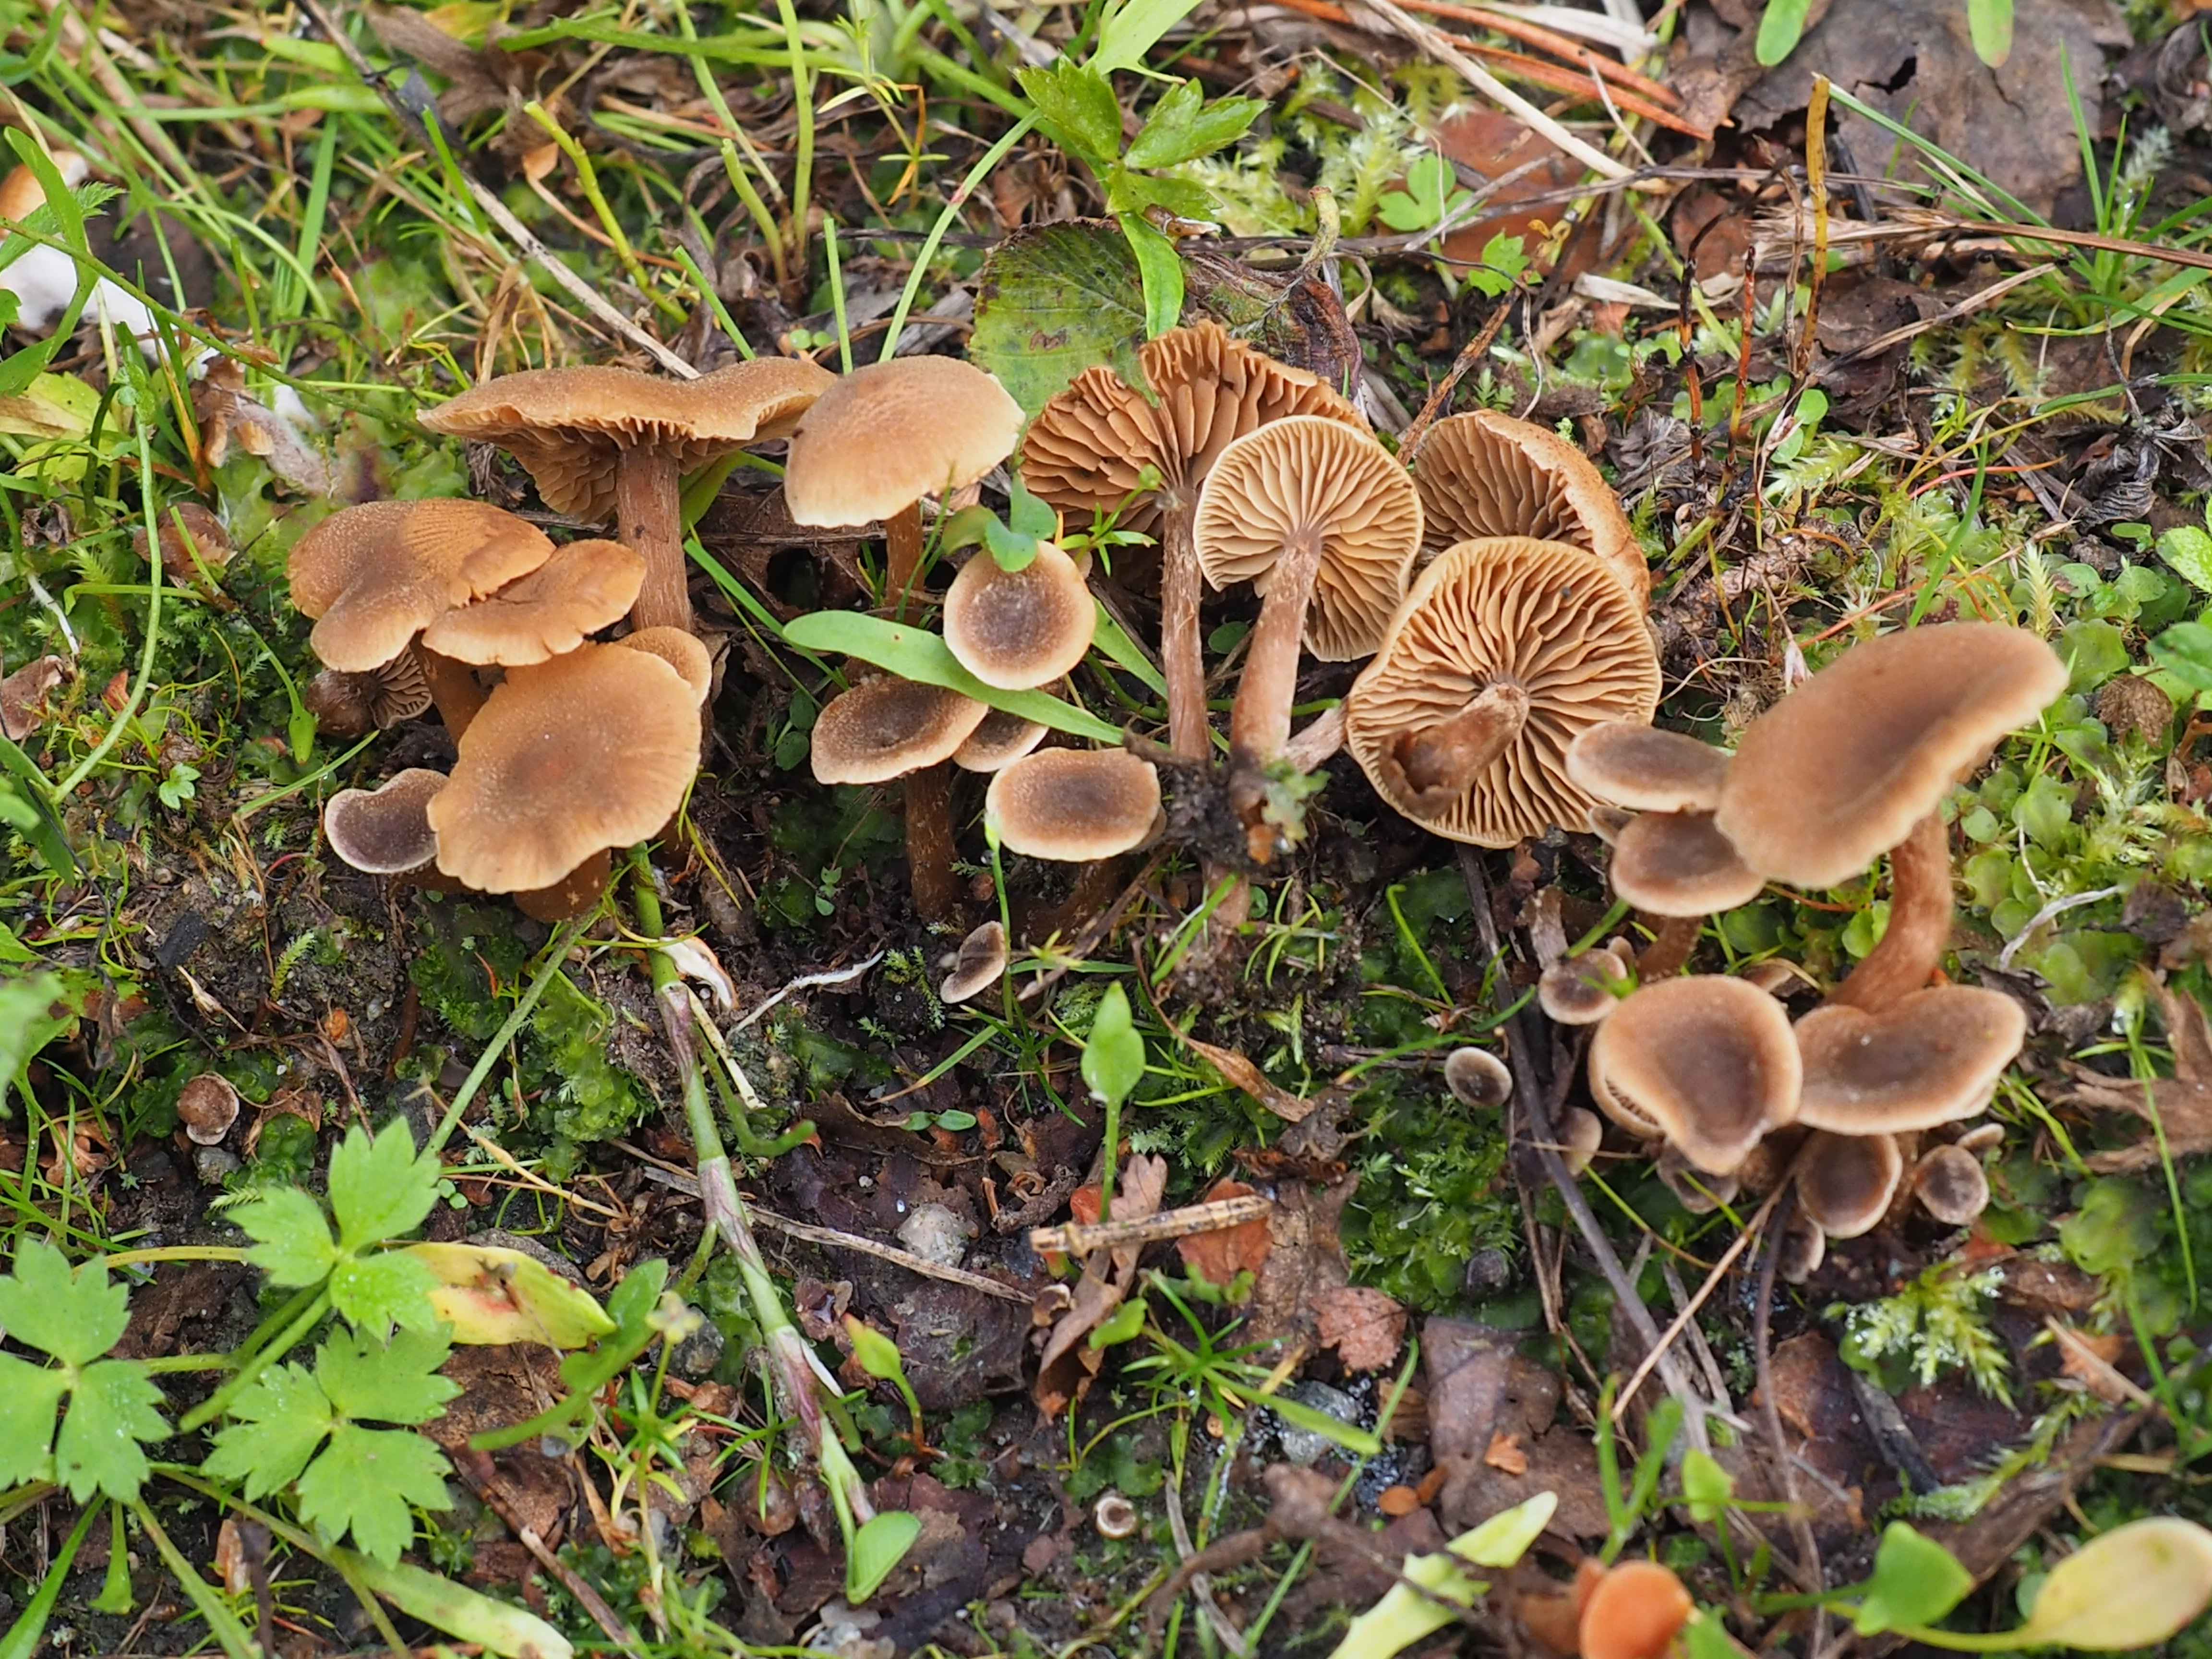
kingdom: Fungi
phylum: Basidiomycota
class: Agaricomycetes
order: Agaricales
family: Hymenogastraceae
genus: Naucoria
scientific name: Naucoria scolecina
